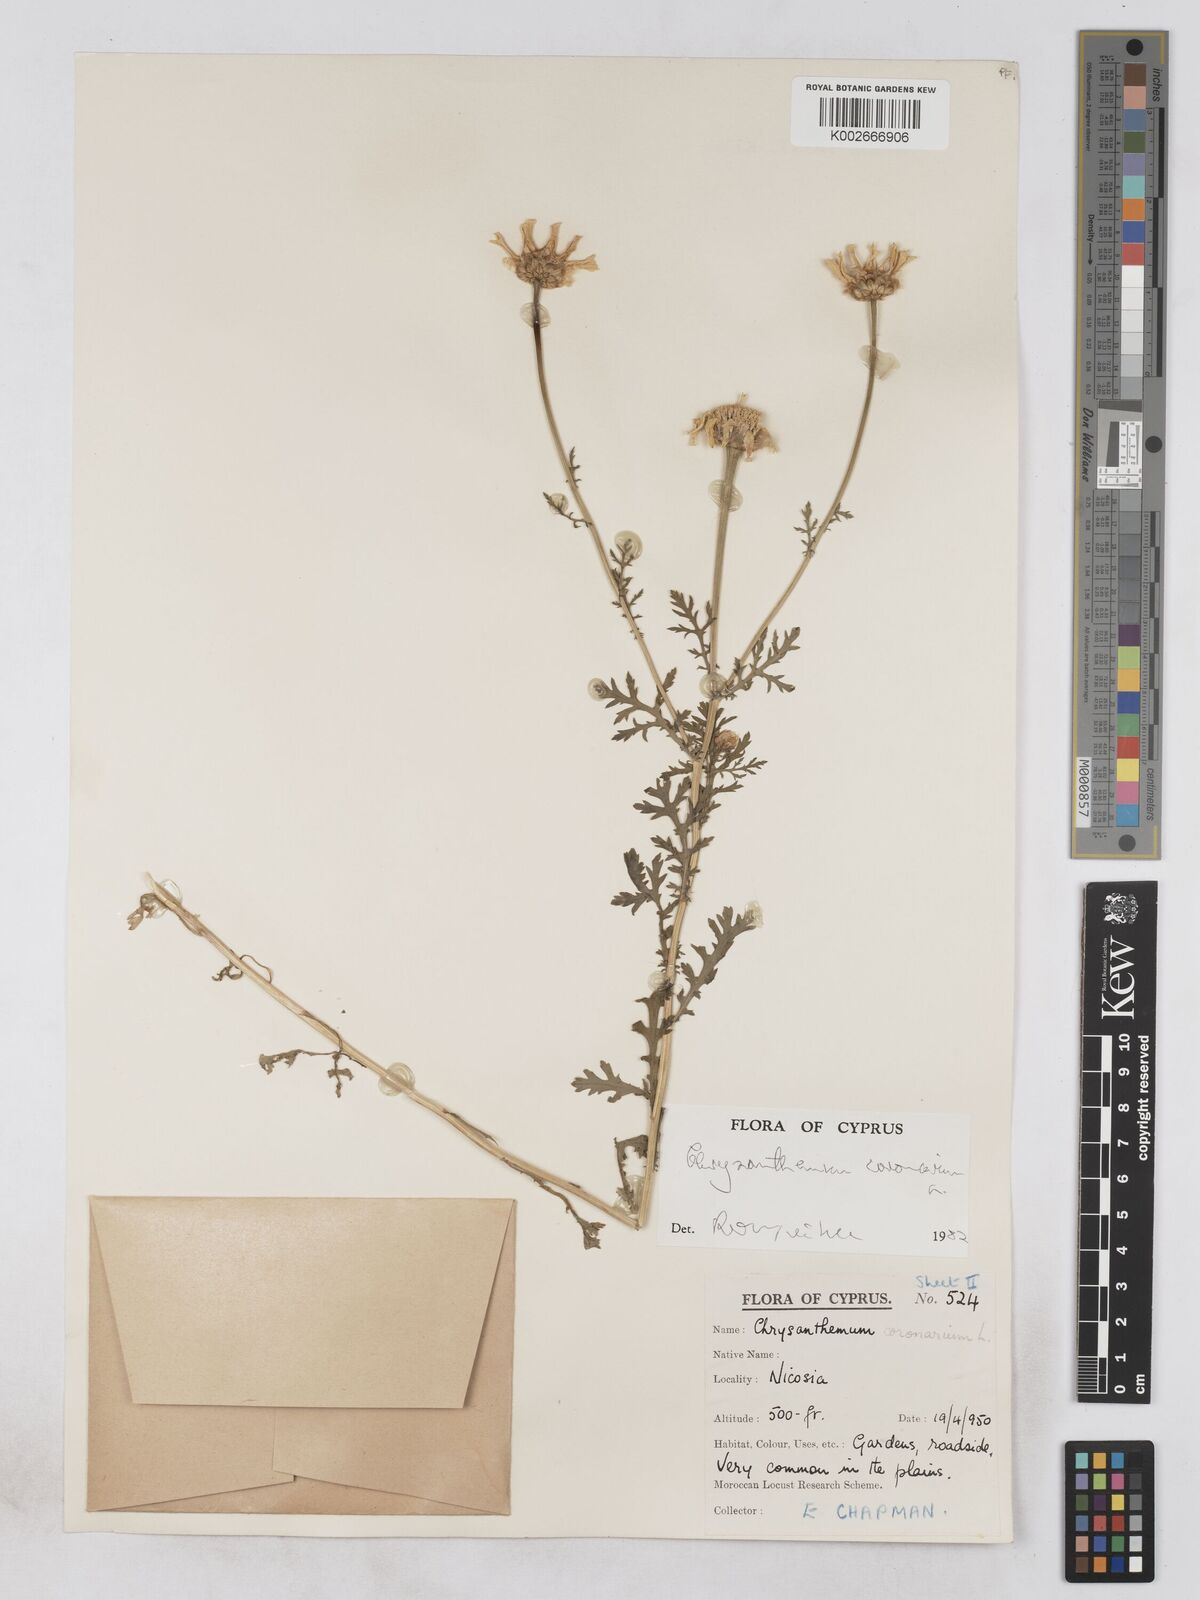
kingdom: Plantae
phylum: Tracheophyta
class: Magnoliopsida
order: Asterales
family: Asteraceae
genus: Glebionis
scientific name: Glebionis coronaria
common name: Crowndaisy
